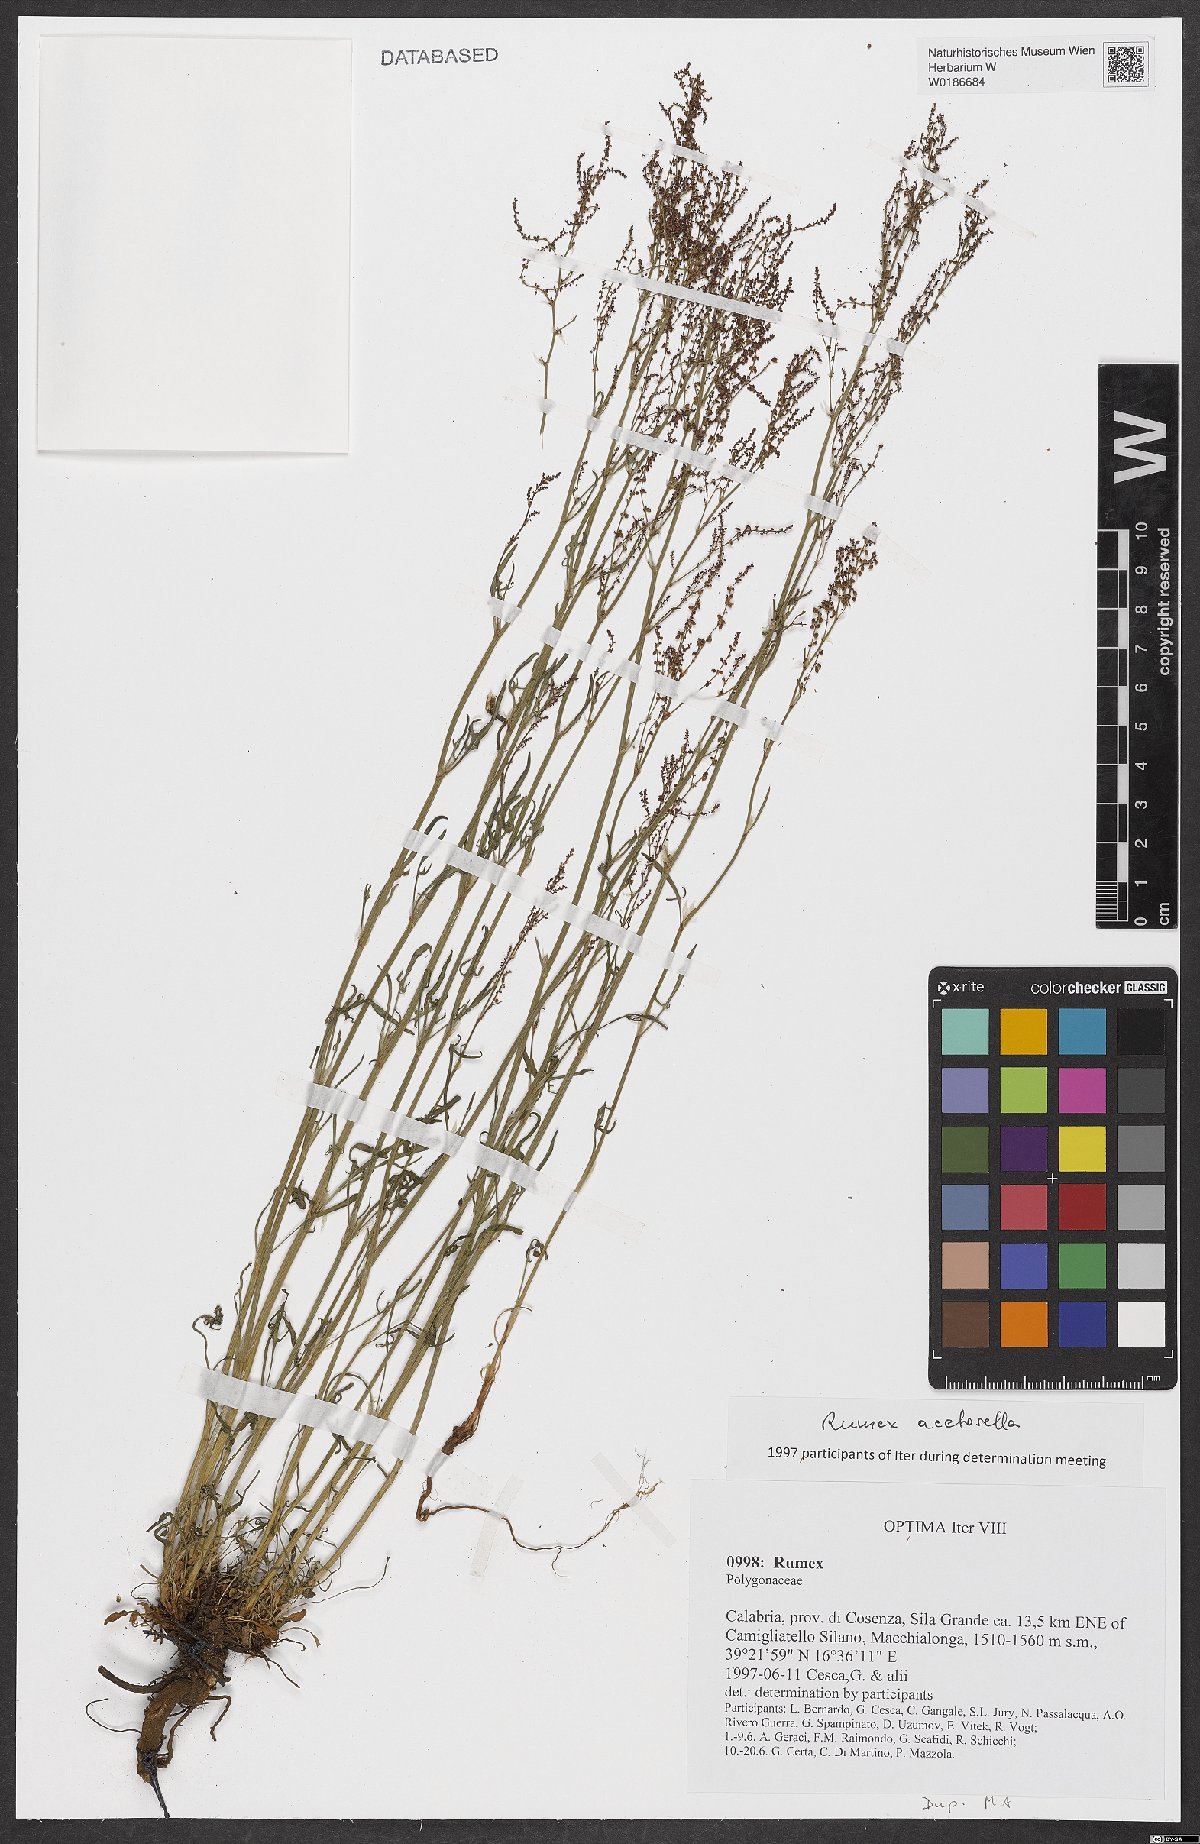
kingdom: Plantae
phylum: Tracheophyta
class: Magnoliopsida
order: Caryophyllales
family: Polygonaceae
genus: Rumex
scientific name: Rumex acetosella
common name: Common sheep sorrel
